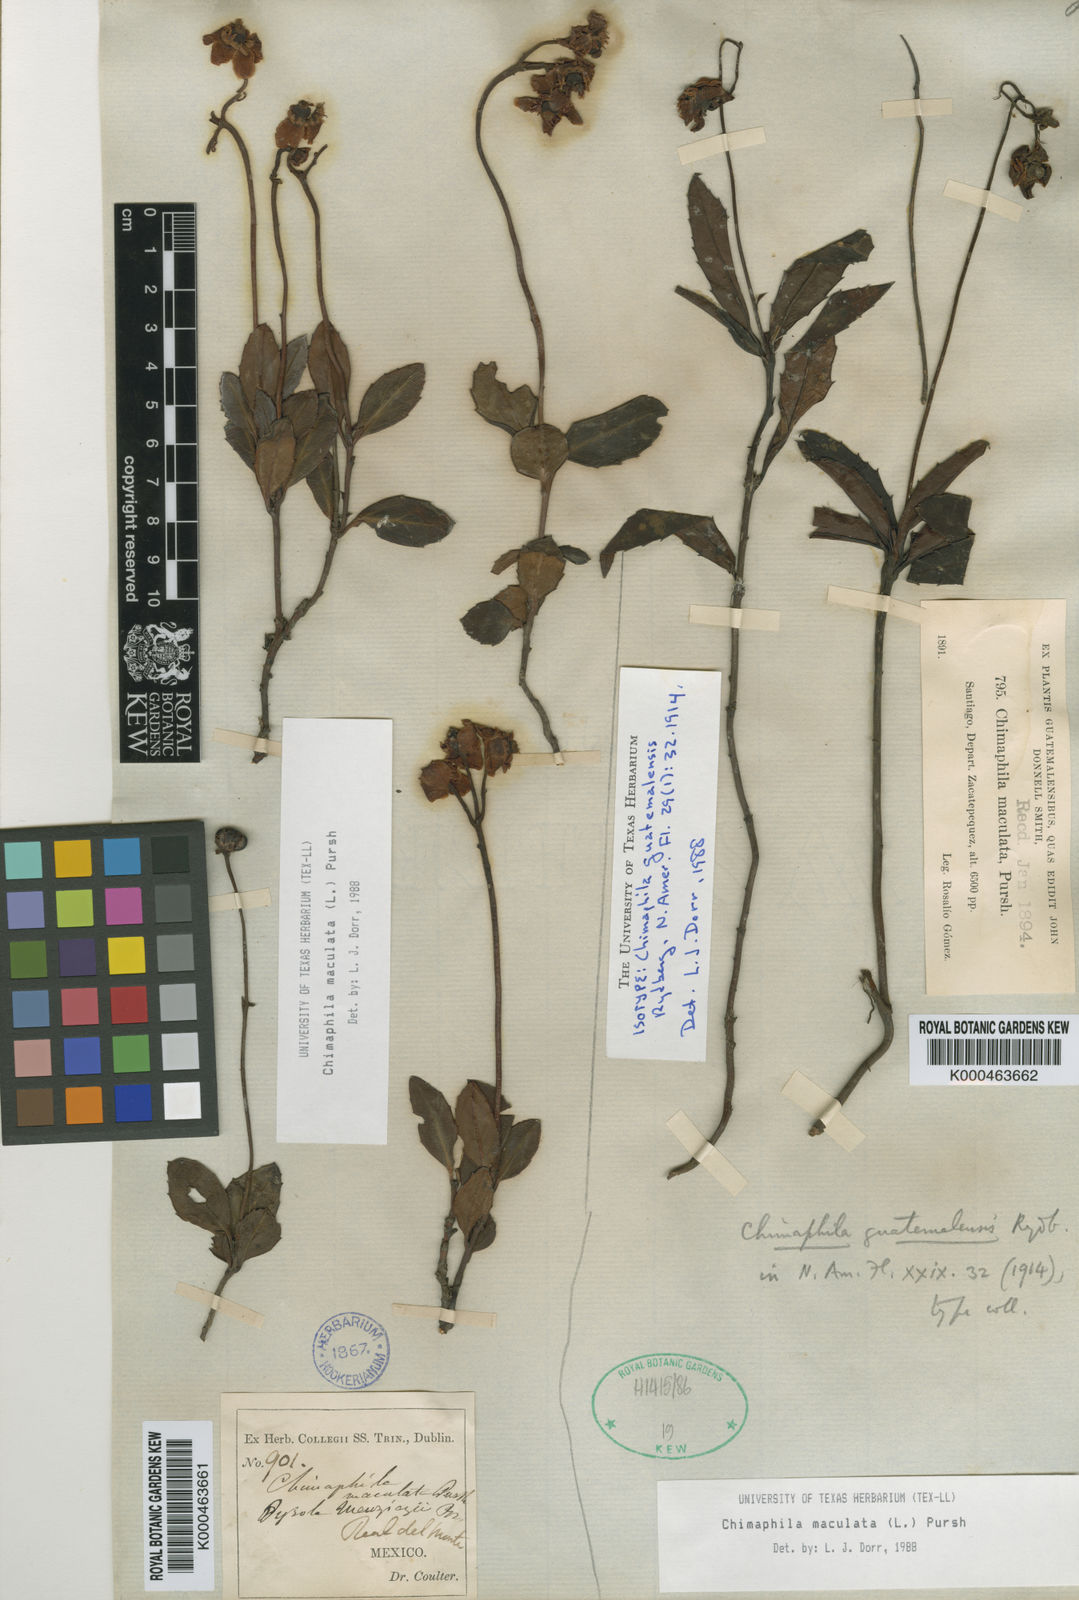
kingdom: Plantae
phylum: Tracheophyta
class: Magnoliopsida
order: Ericales
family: Ericaceae
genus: Chimaphila
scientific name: Chimaphila maculata
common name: Spotted pipsissewa
